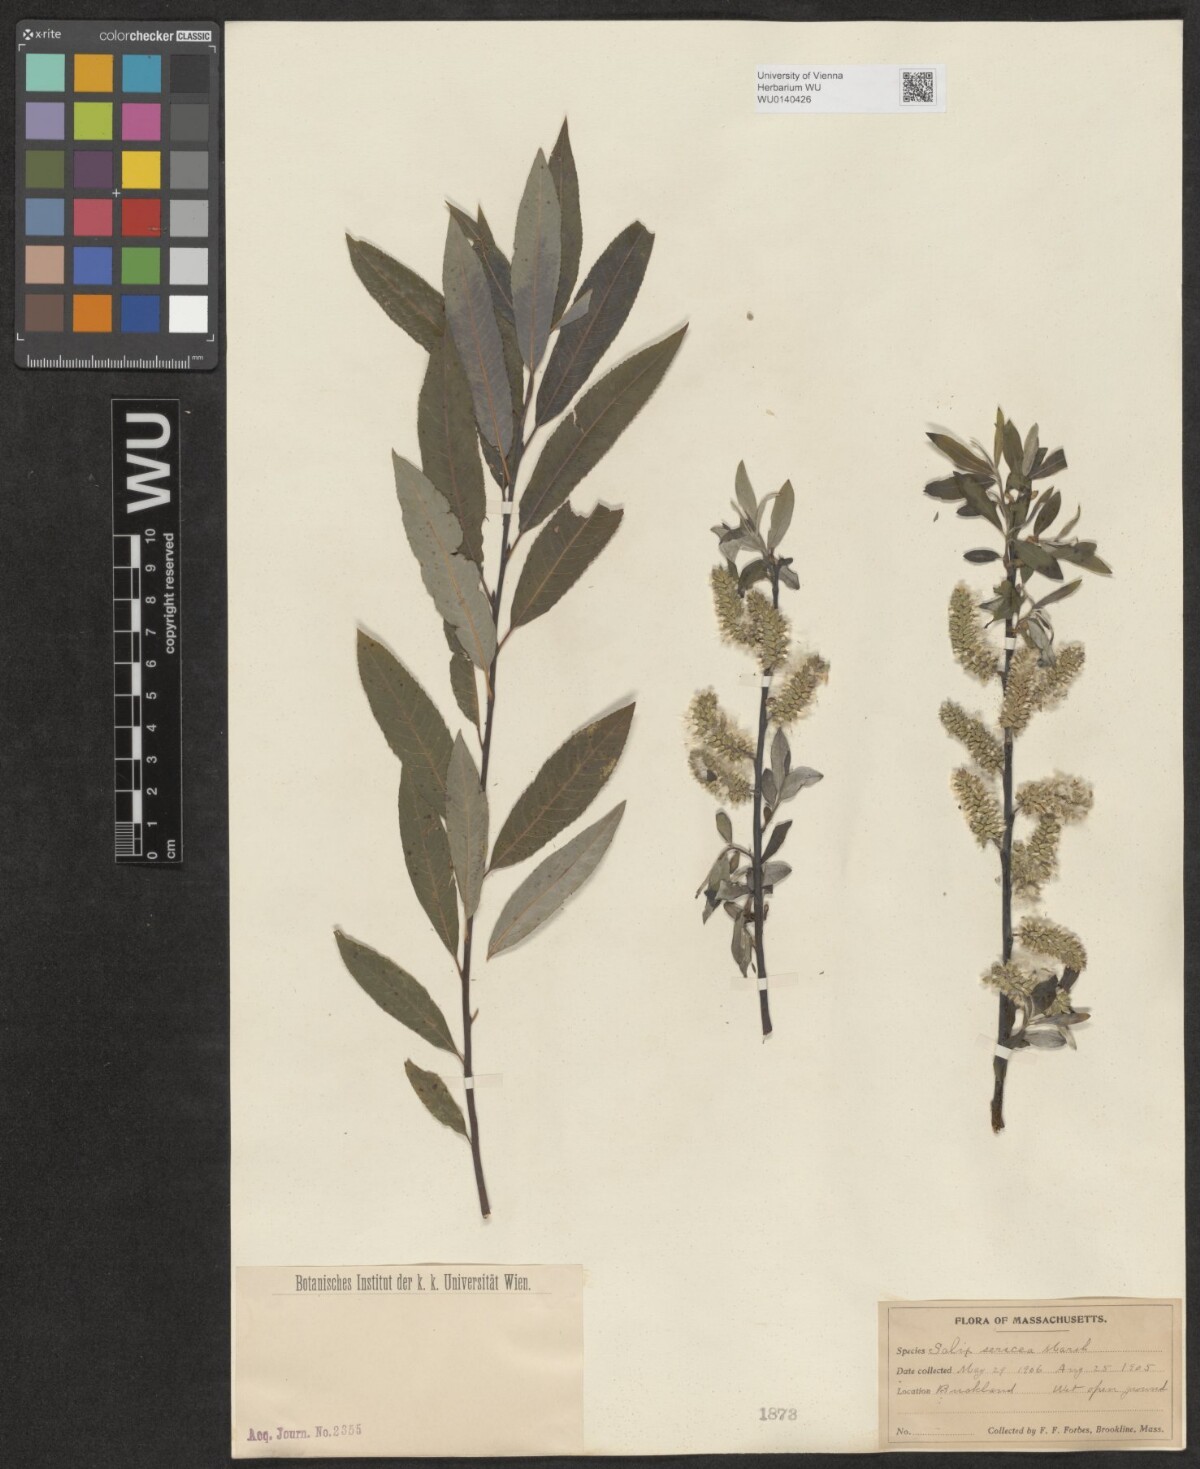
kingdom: Plantae
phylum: Tracheophyta
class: Magnoliopsida
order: Malpighiales
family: Salicaceae
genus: Salix
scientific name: Salix sericea
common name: Silky willow
